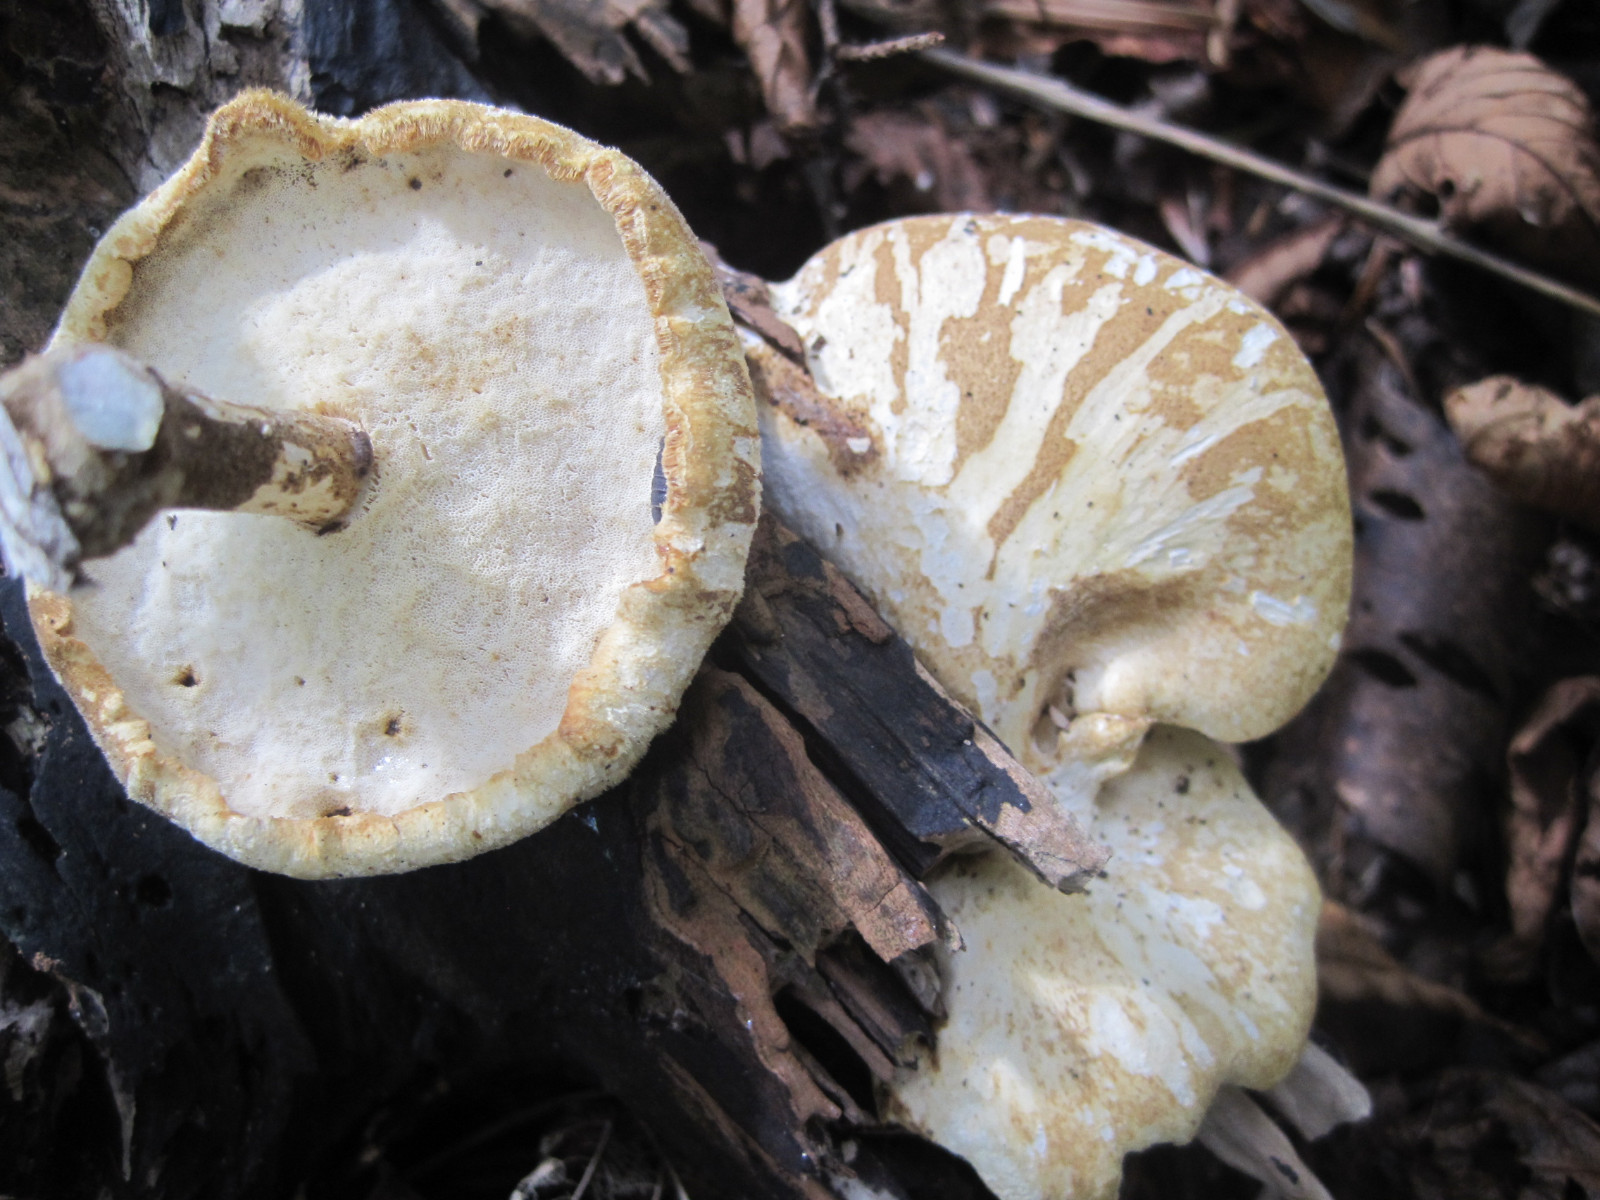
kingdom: Fungi
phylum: Basidiomycota
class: Agaricomycetes
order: Polyporales
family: Polyporaceae
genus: Cerioporus
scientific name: Cerioporus varius
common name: foranderlig stilkporesvamp
